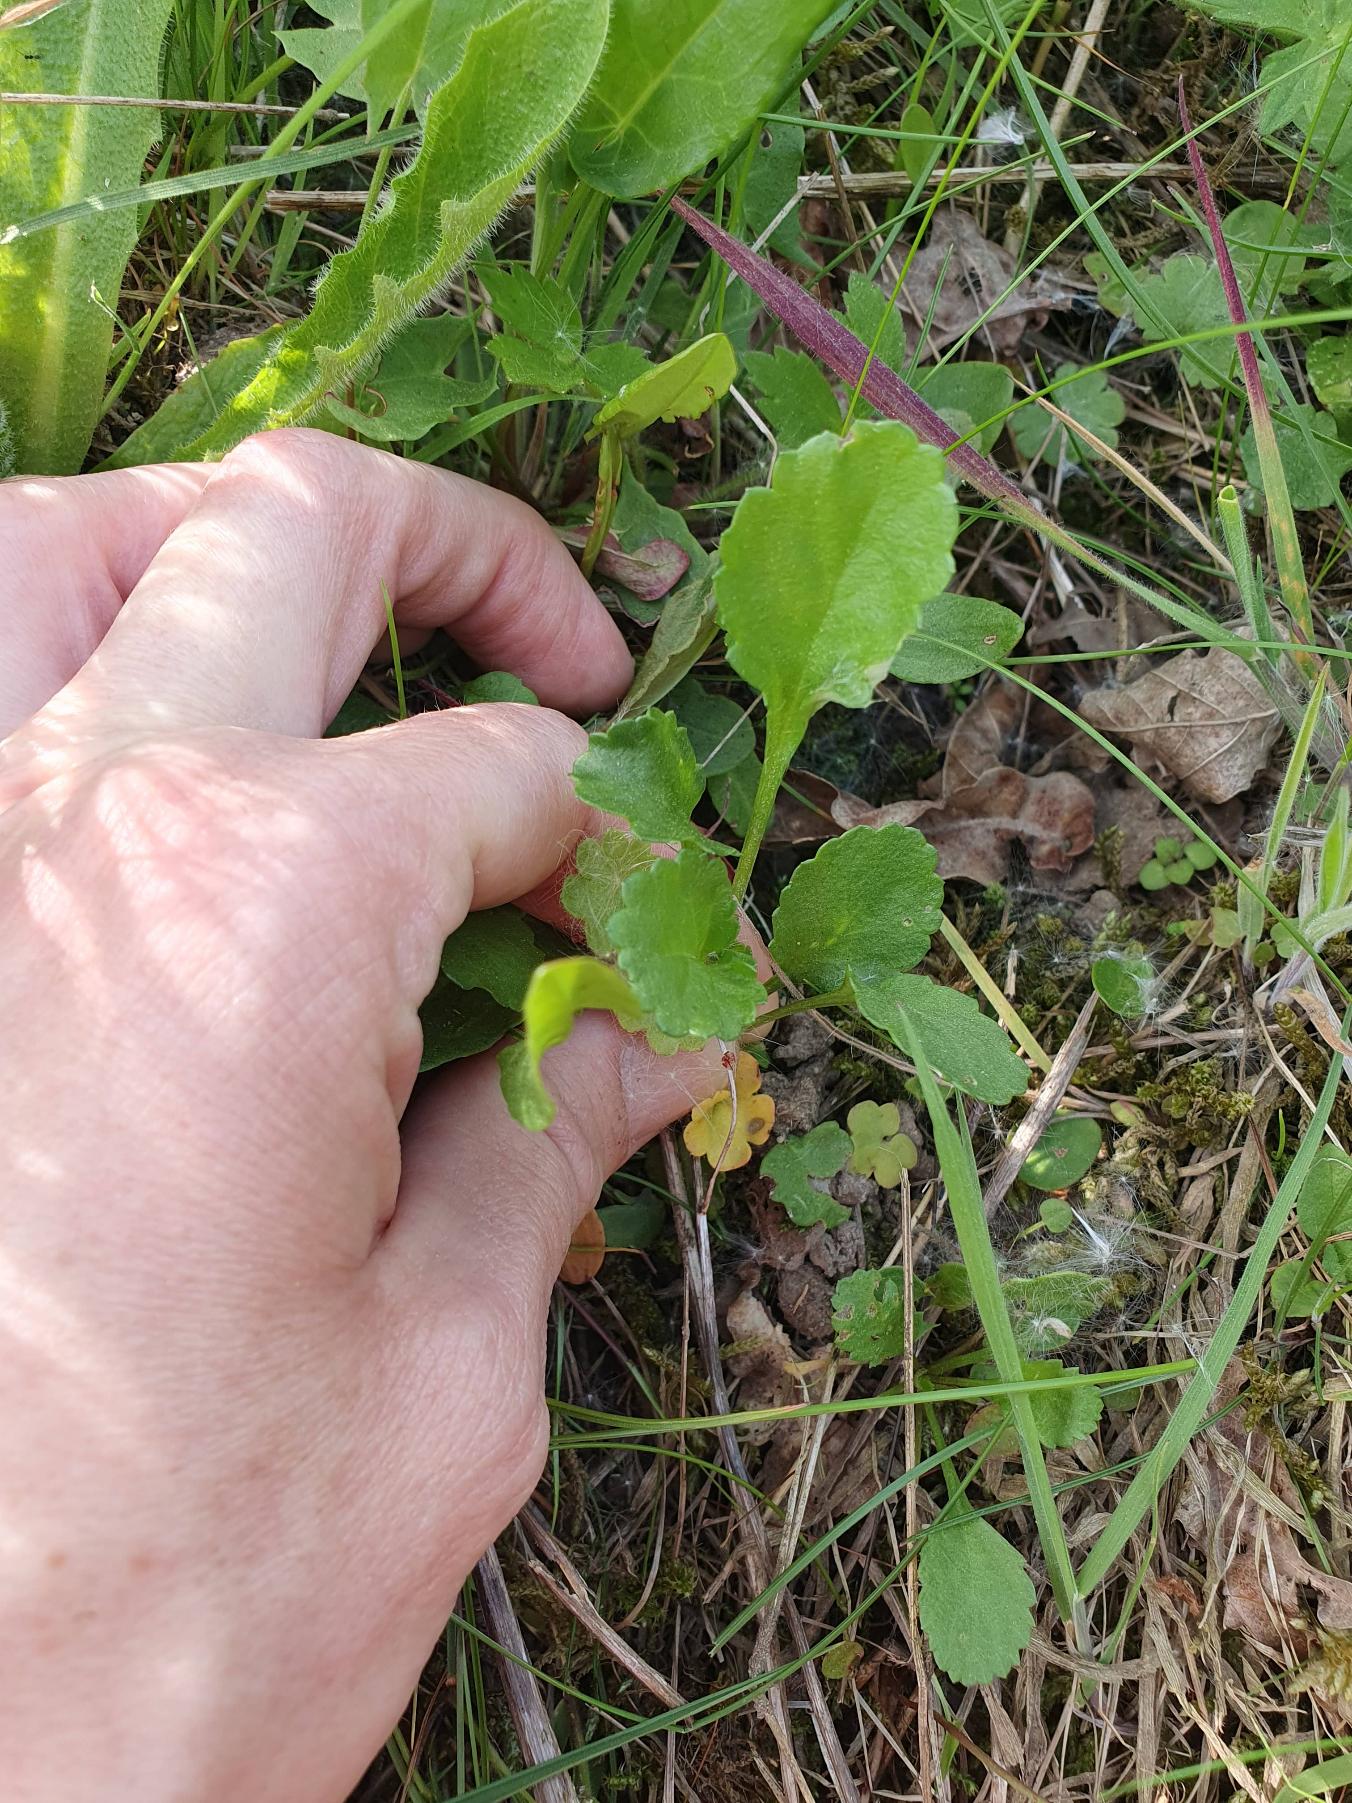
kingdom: Plantae
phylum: Tracheophyta
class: Magnoliopsida
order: Asterales
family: Asteraceae
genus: Leucanthemum
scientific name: Leucanthemum vulgare
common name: Hvid okseøje
